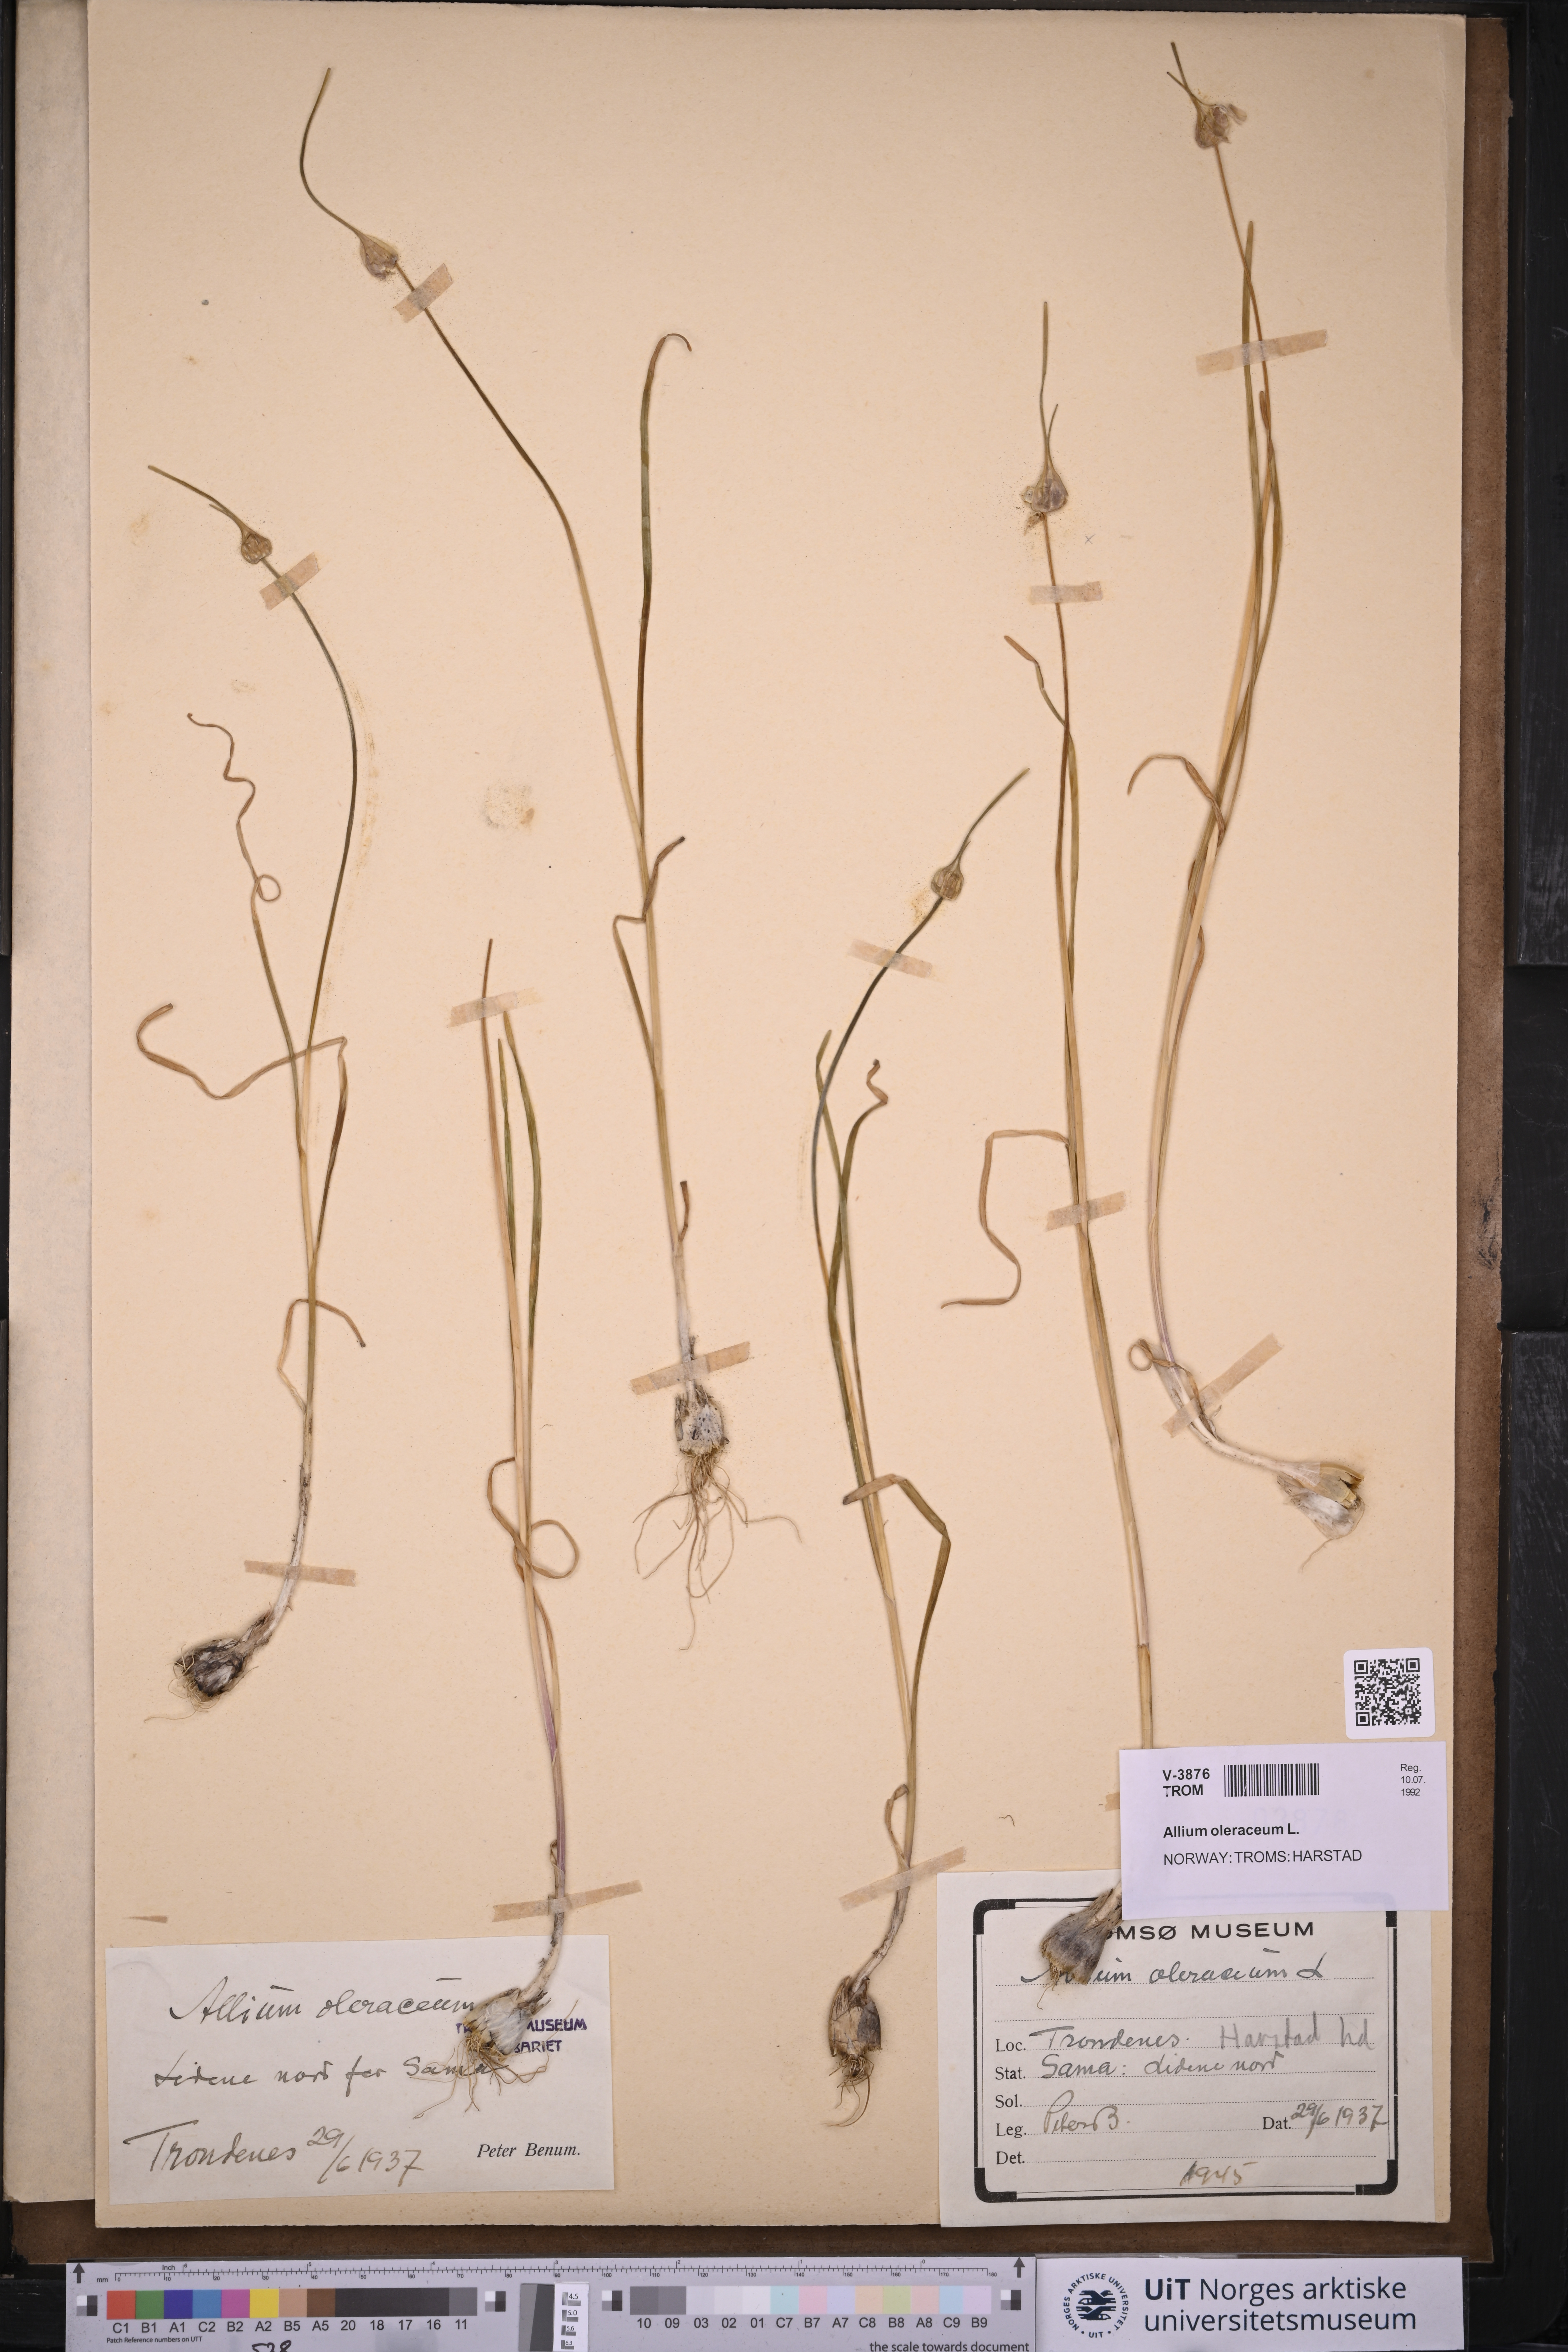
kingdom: Plantae
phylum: Tracheophyta
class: Liliopsida
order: Asparagales
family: Amaryllidaceae
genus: Allium
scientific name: Allium oleraceum
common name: Field garlic
